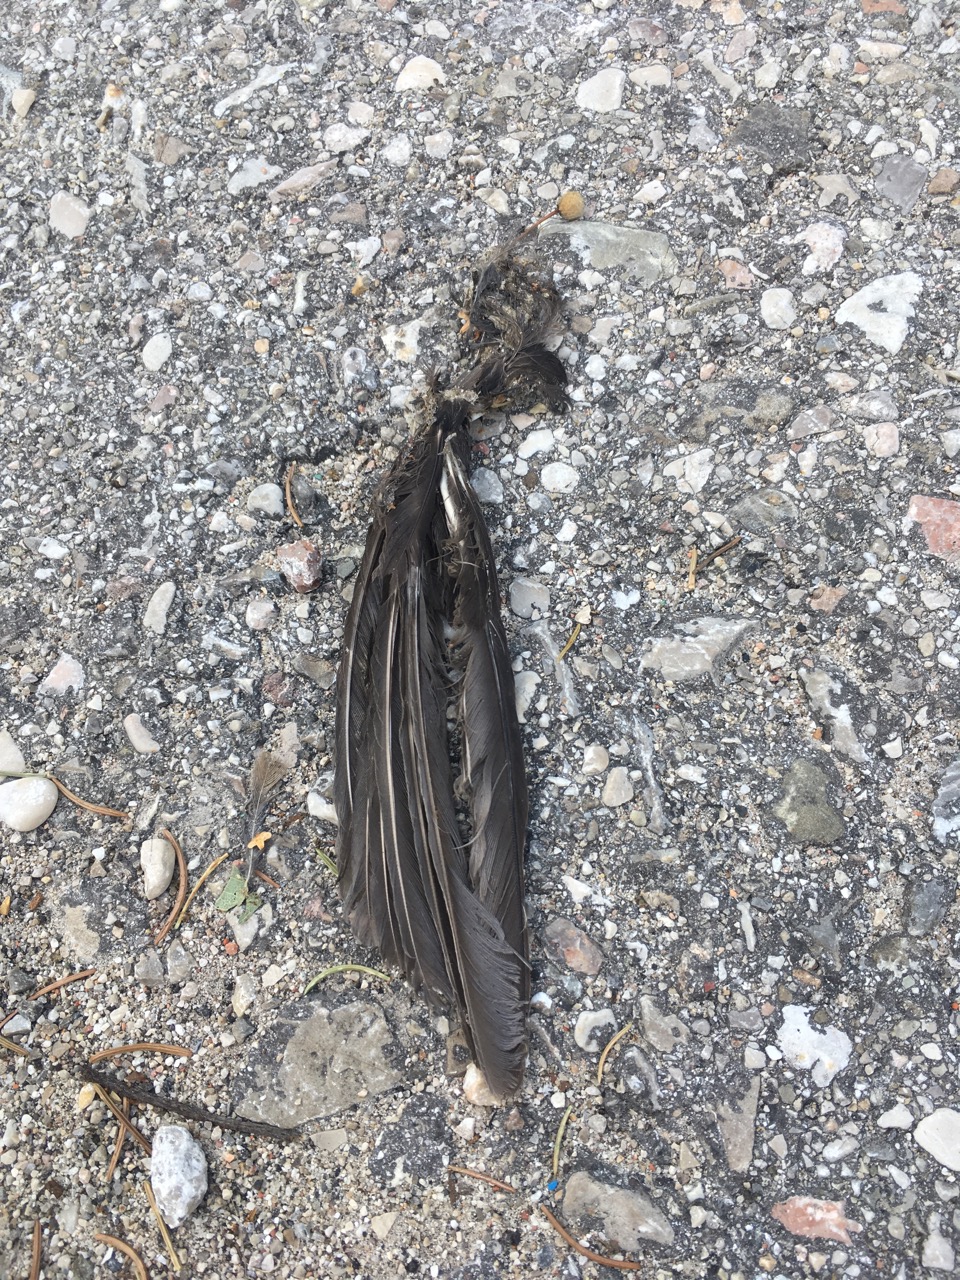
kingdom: Animalia
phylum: Chordata
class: Aves
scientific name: Aves
